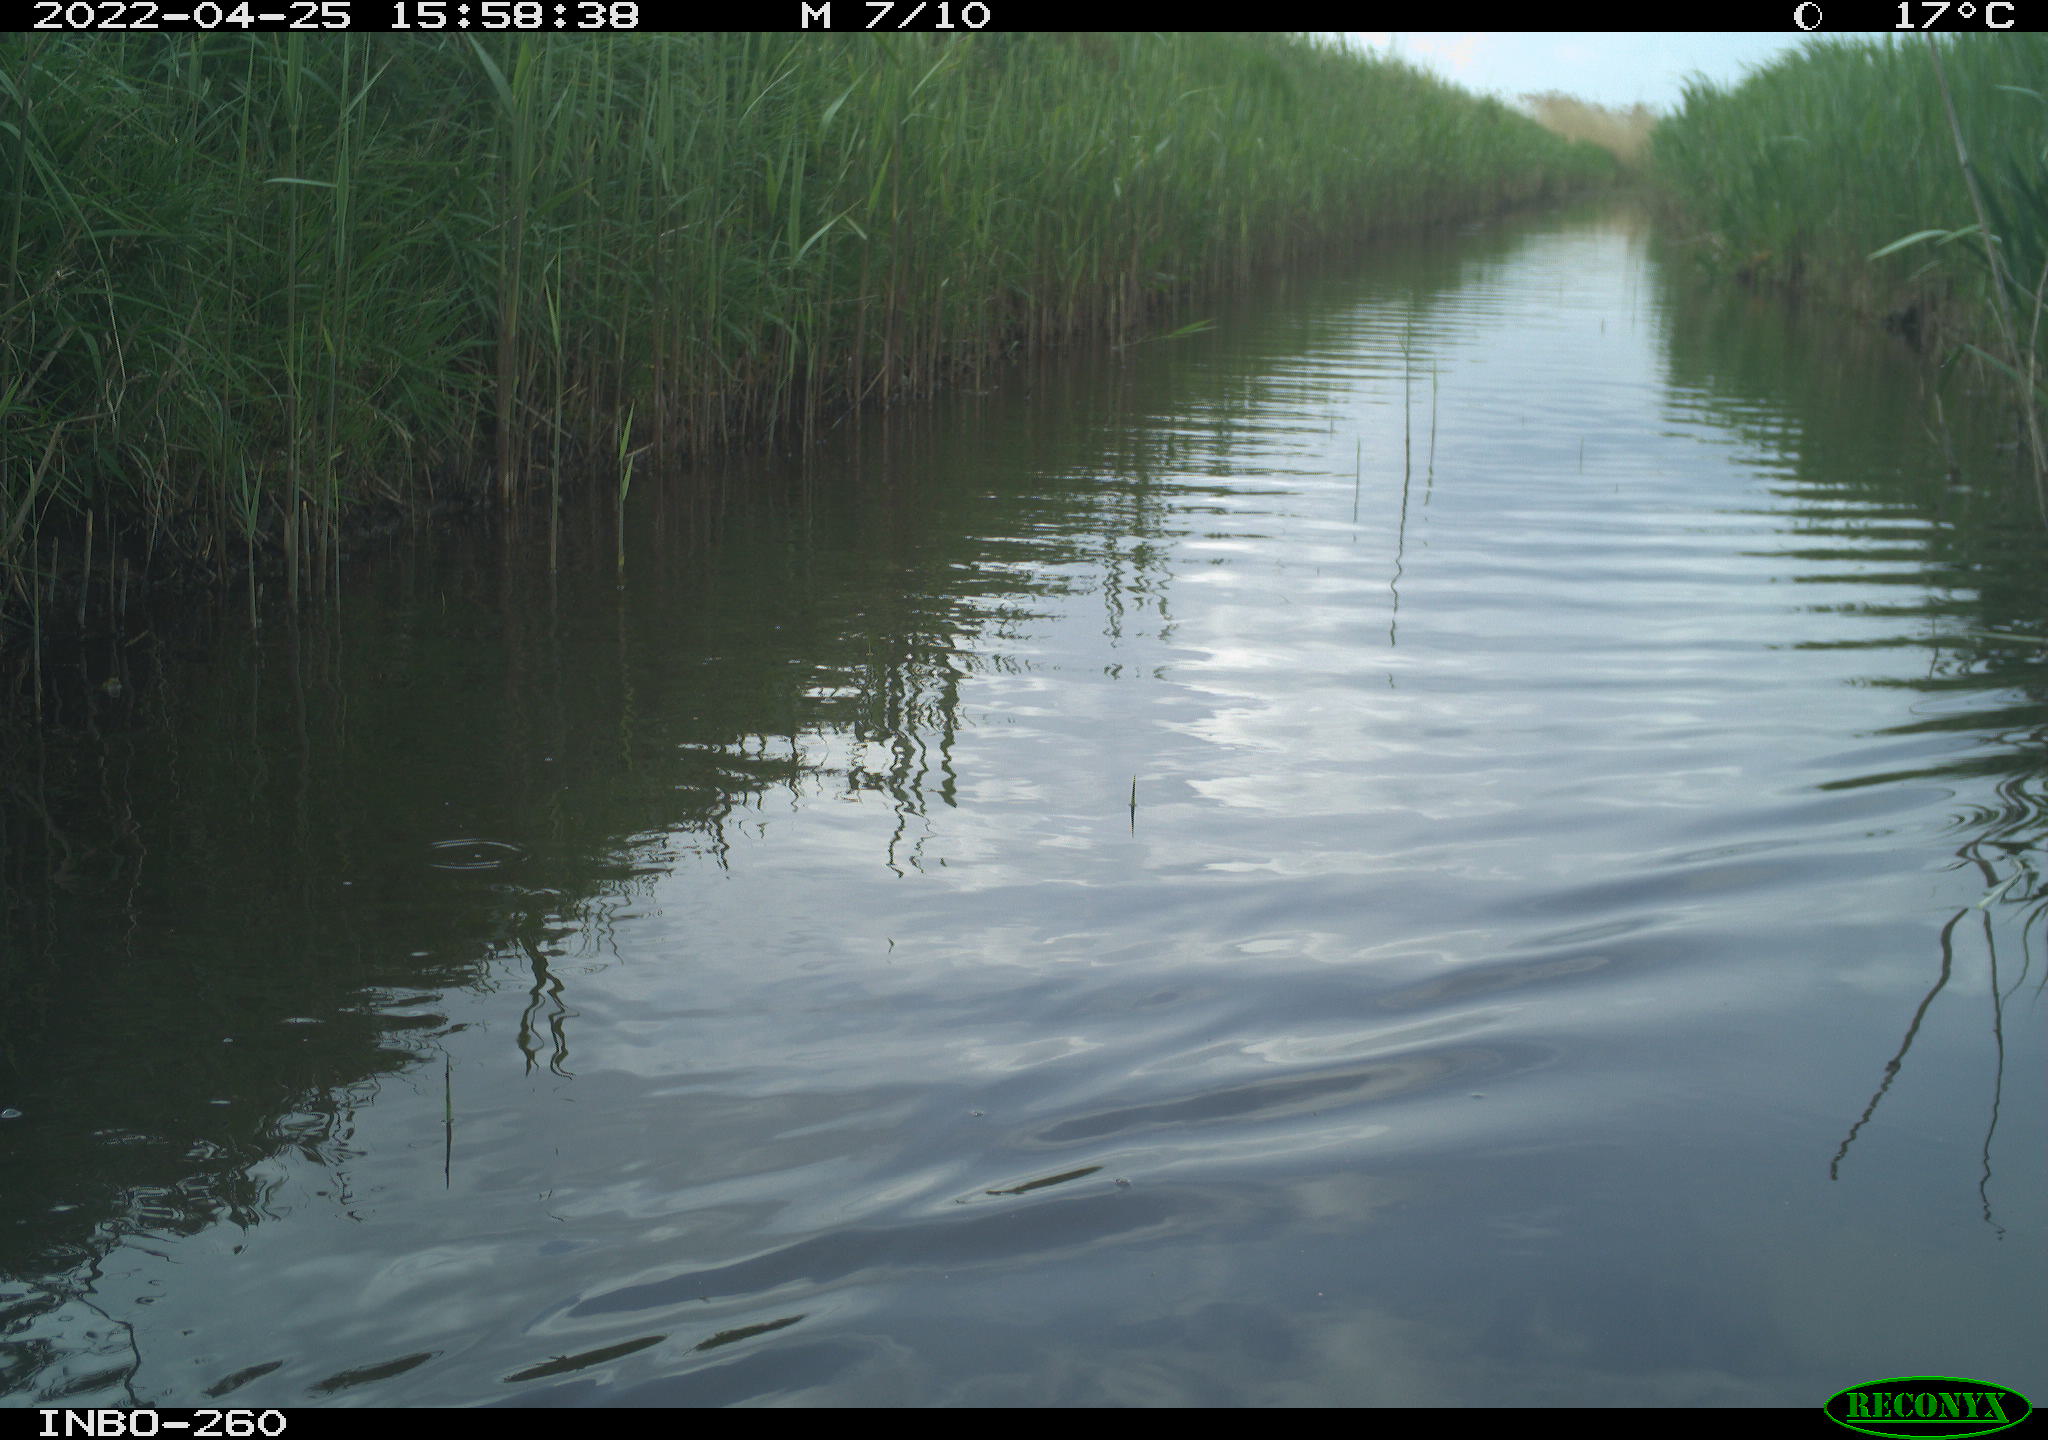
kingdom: Animalia
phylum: Chordata
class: Aves
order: Gruiformes
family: Rallidae
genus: Fulica
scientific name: Fulica atra
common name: Eurasian coot
